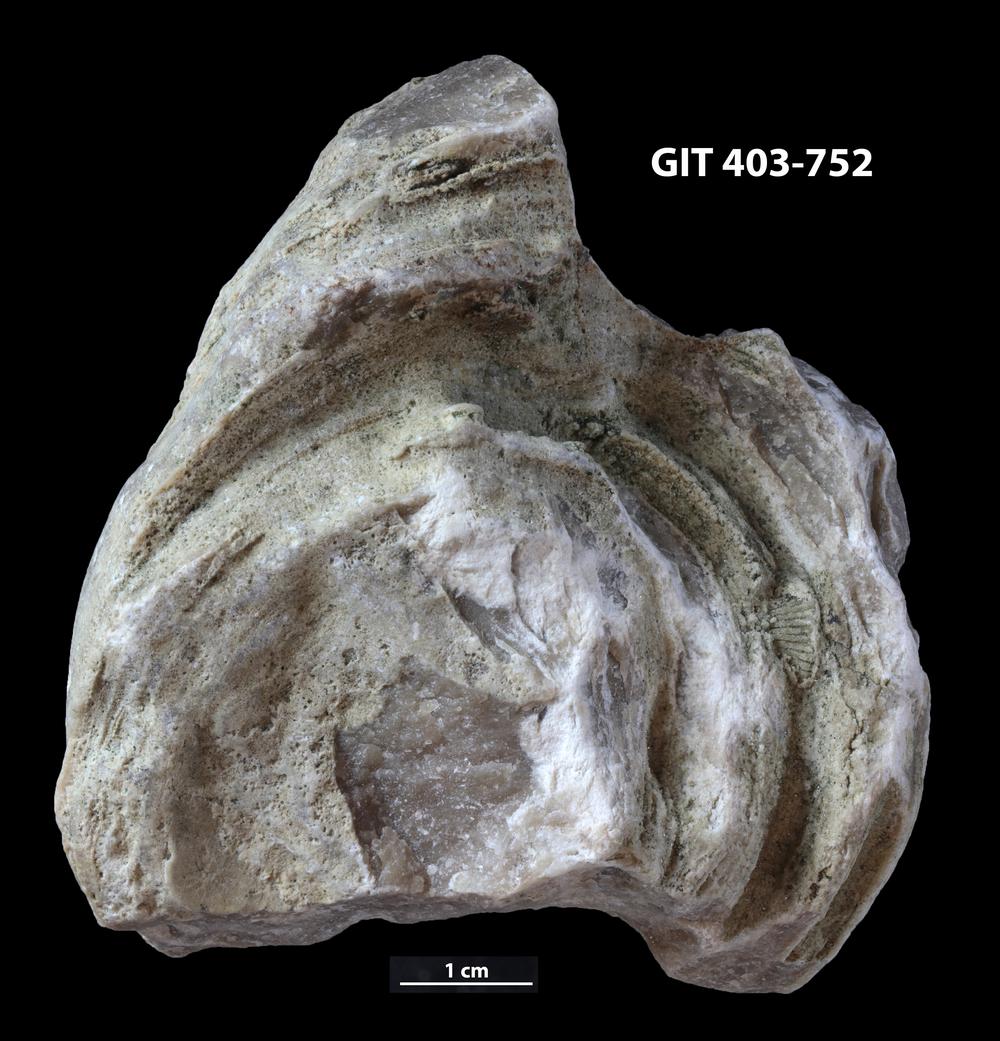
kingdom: Animalia
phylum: Porifera
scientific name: Porifera
